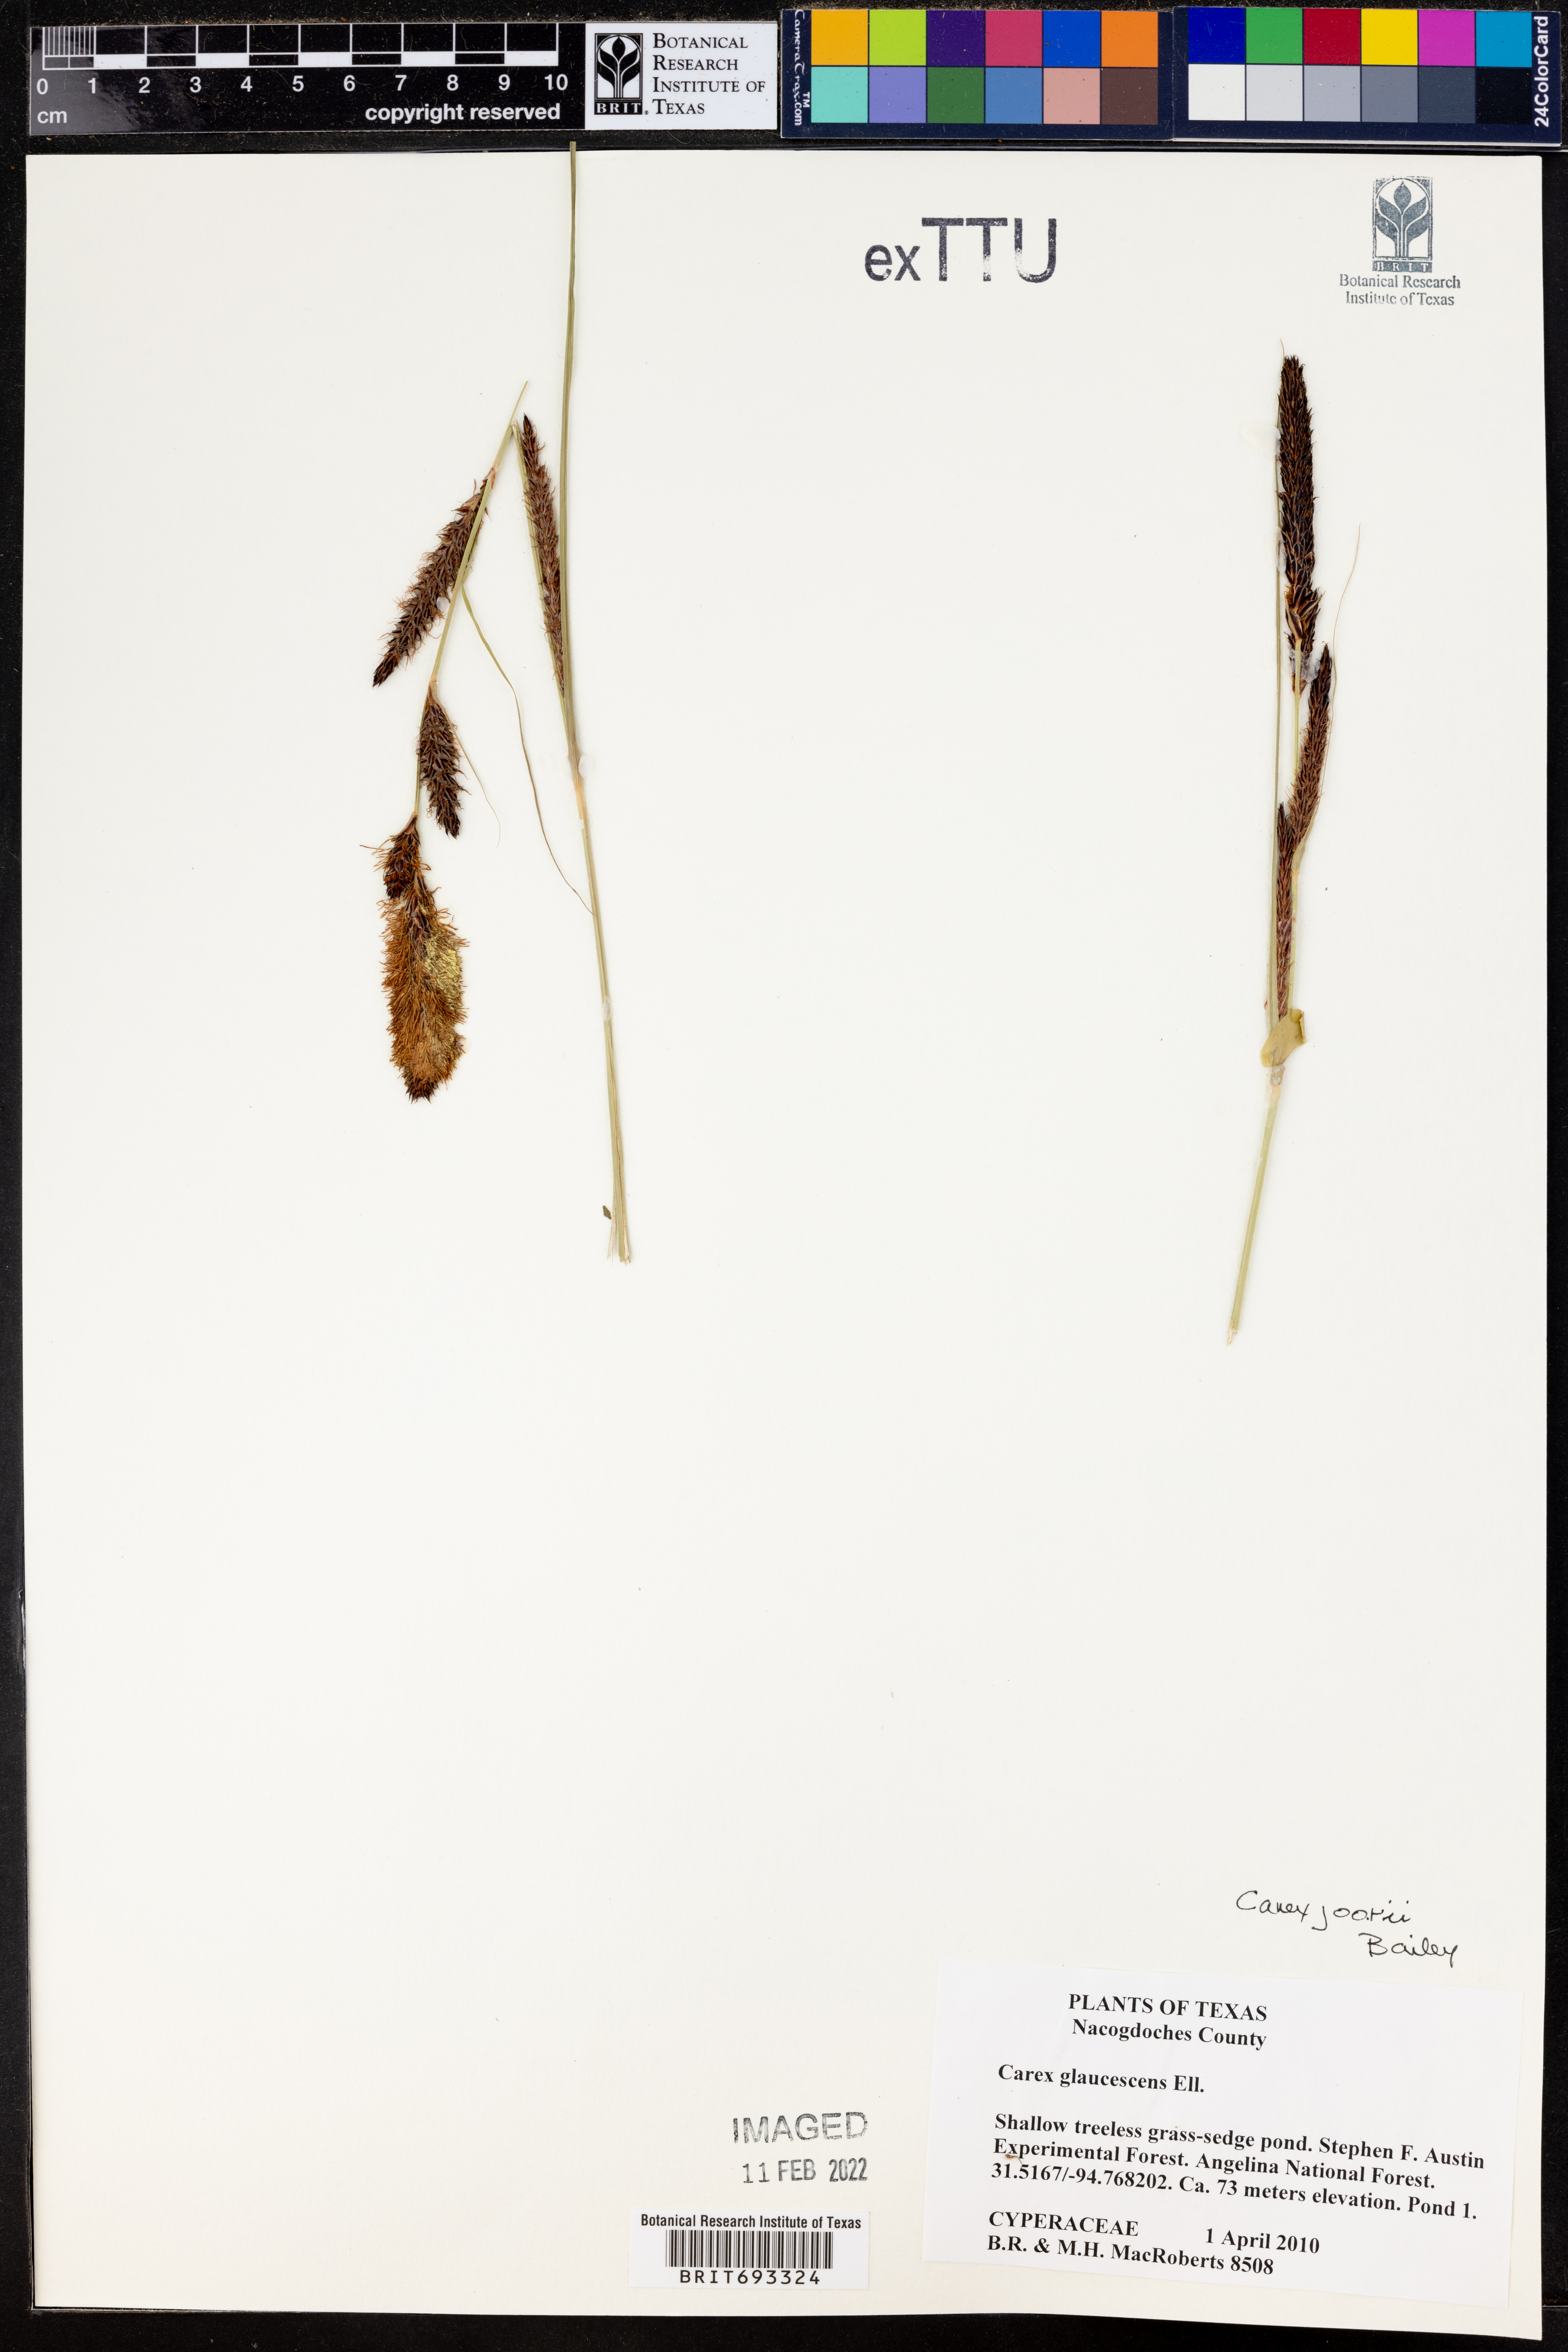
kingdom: Plantae
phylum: Tracheophyta
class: Liliopsida
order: Poales
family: Cyperaceae
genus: Carex
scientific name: Carex glaucescens
